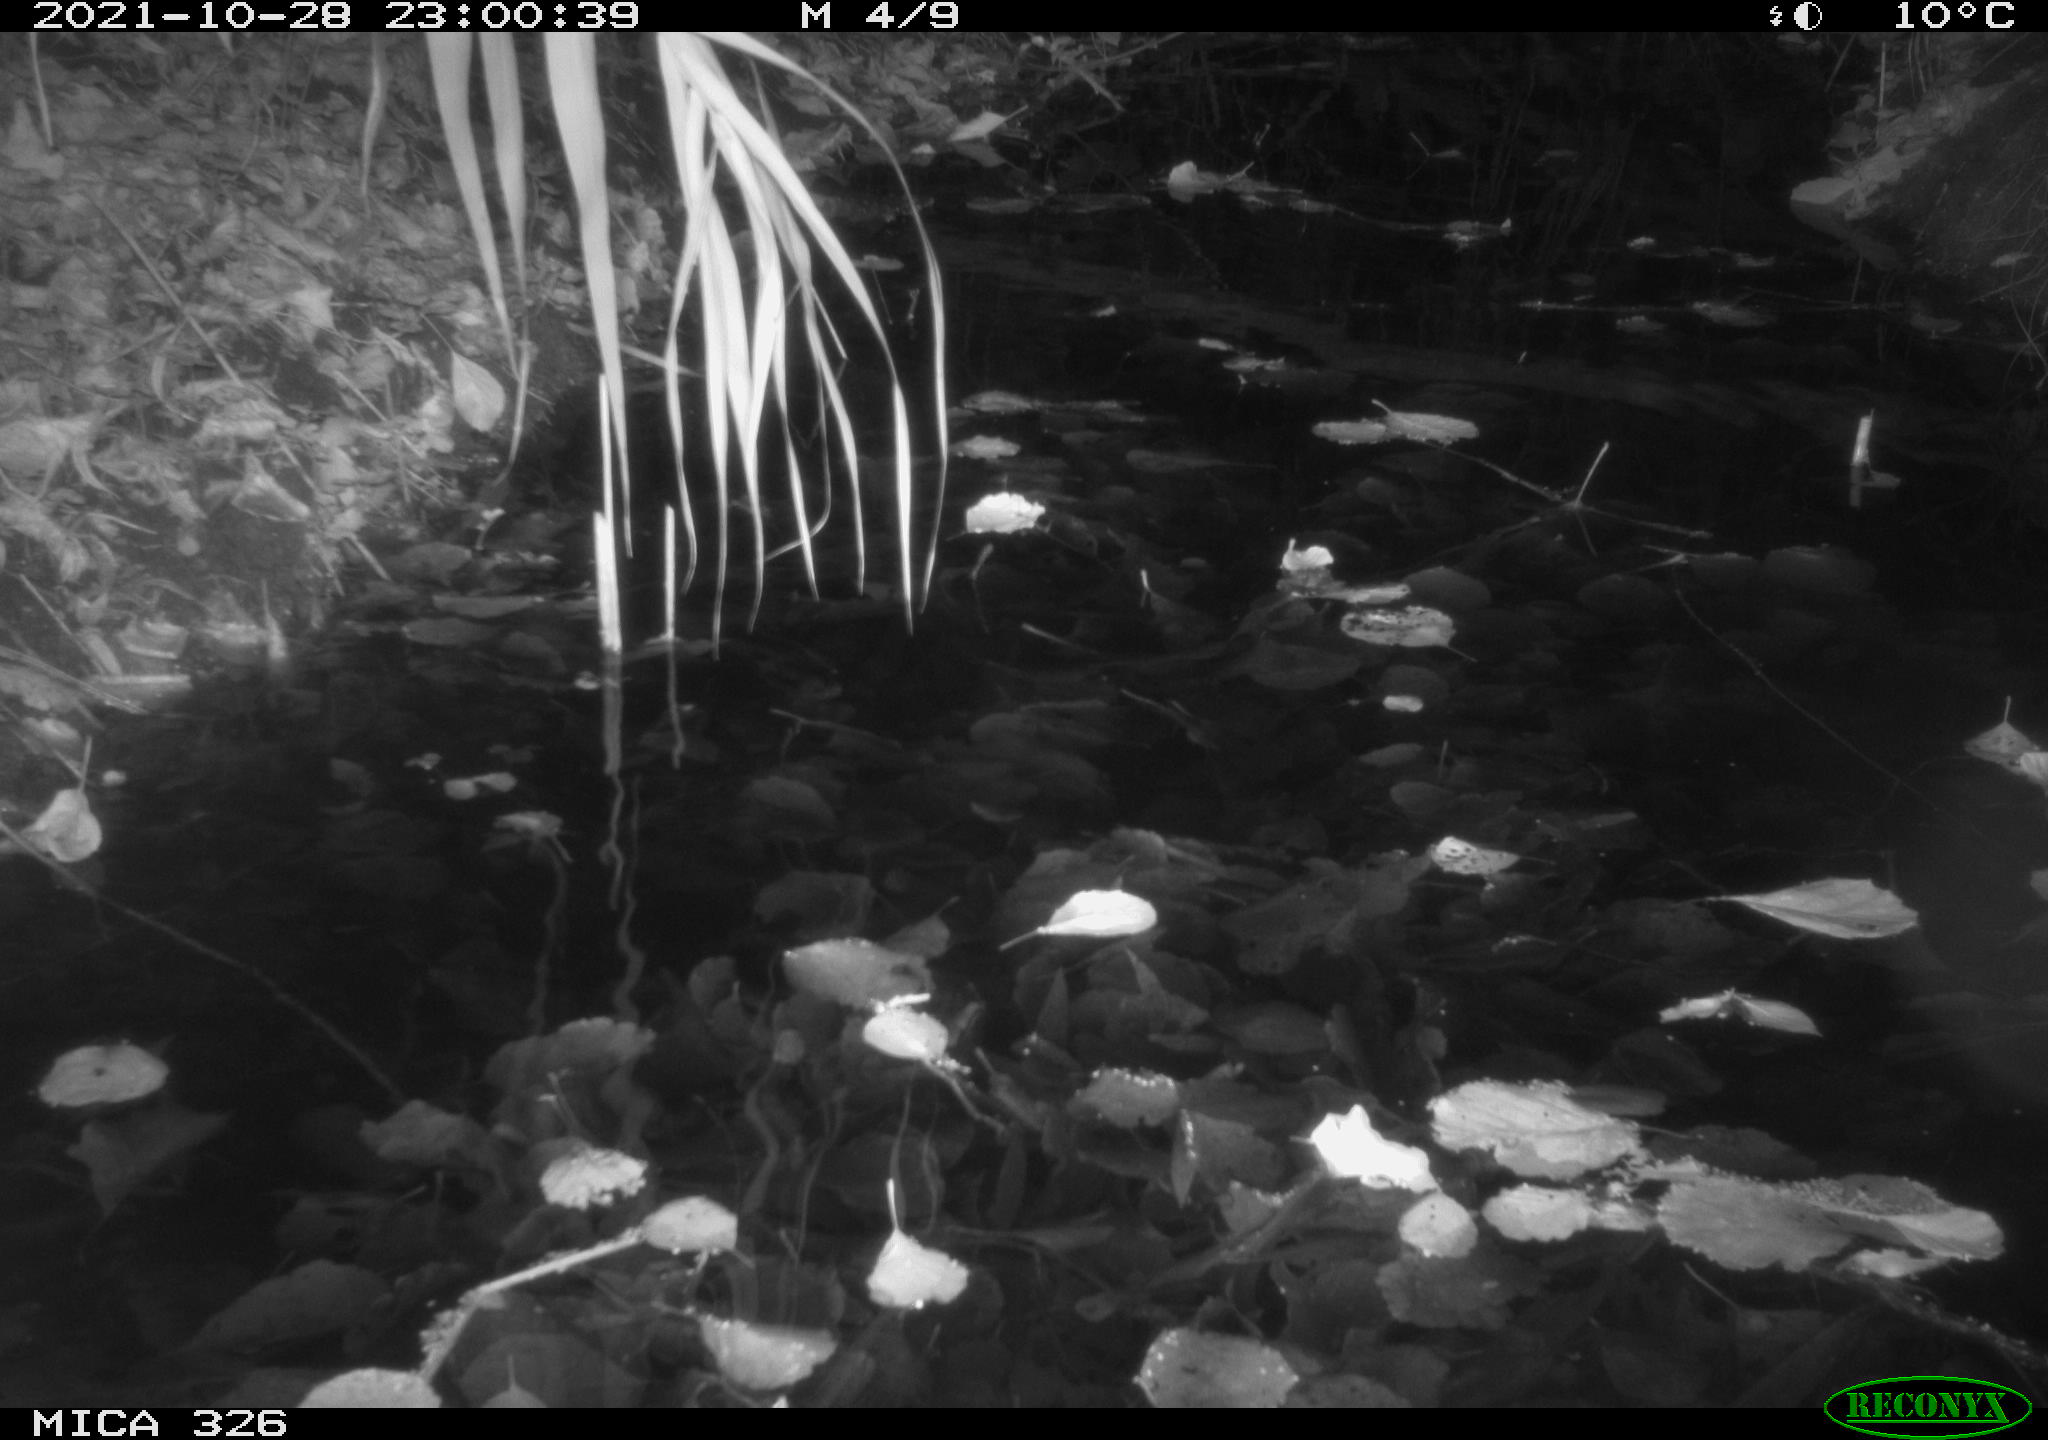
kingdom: Animalia
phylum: Chordata
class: Mammalia
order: Rodentia
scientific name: Rodentia
